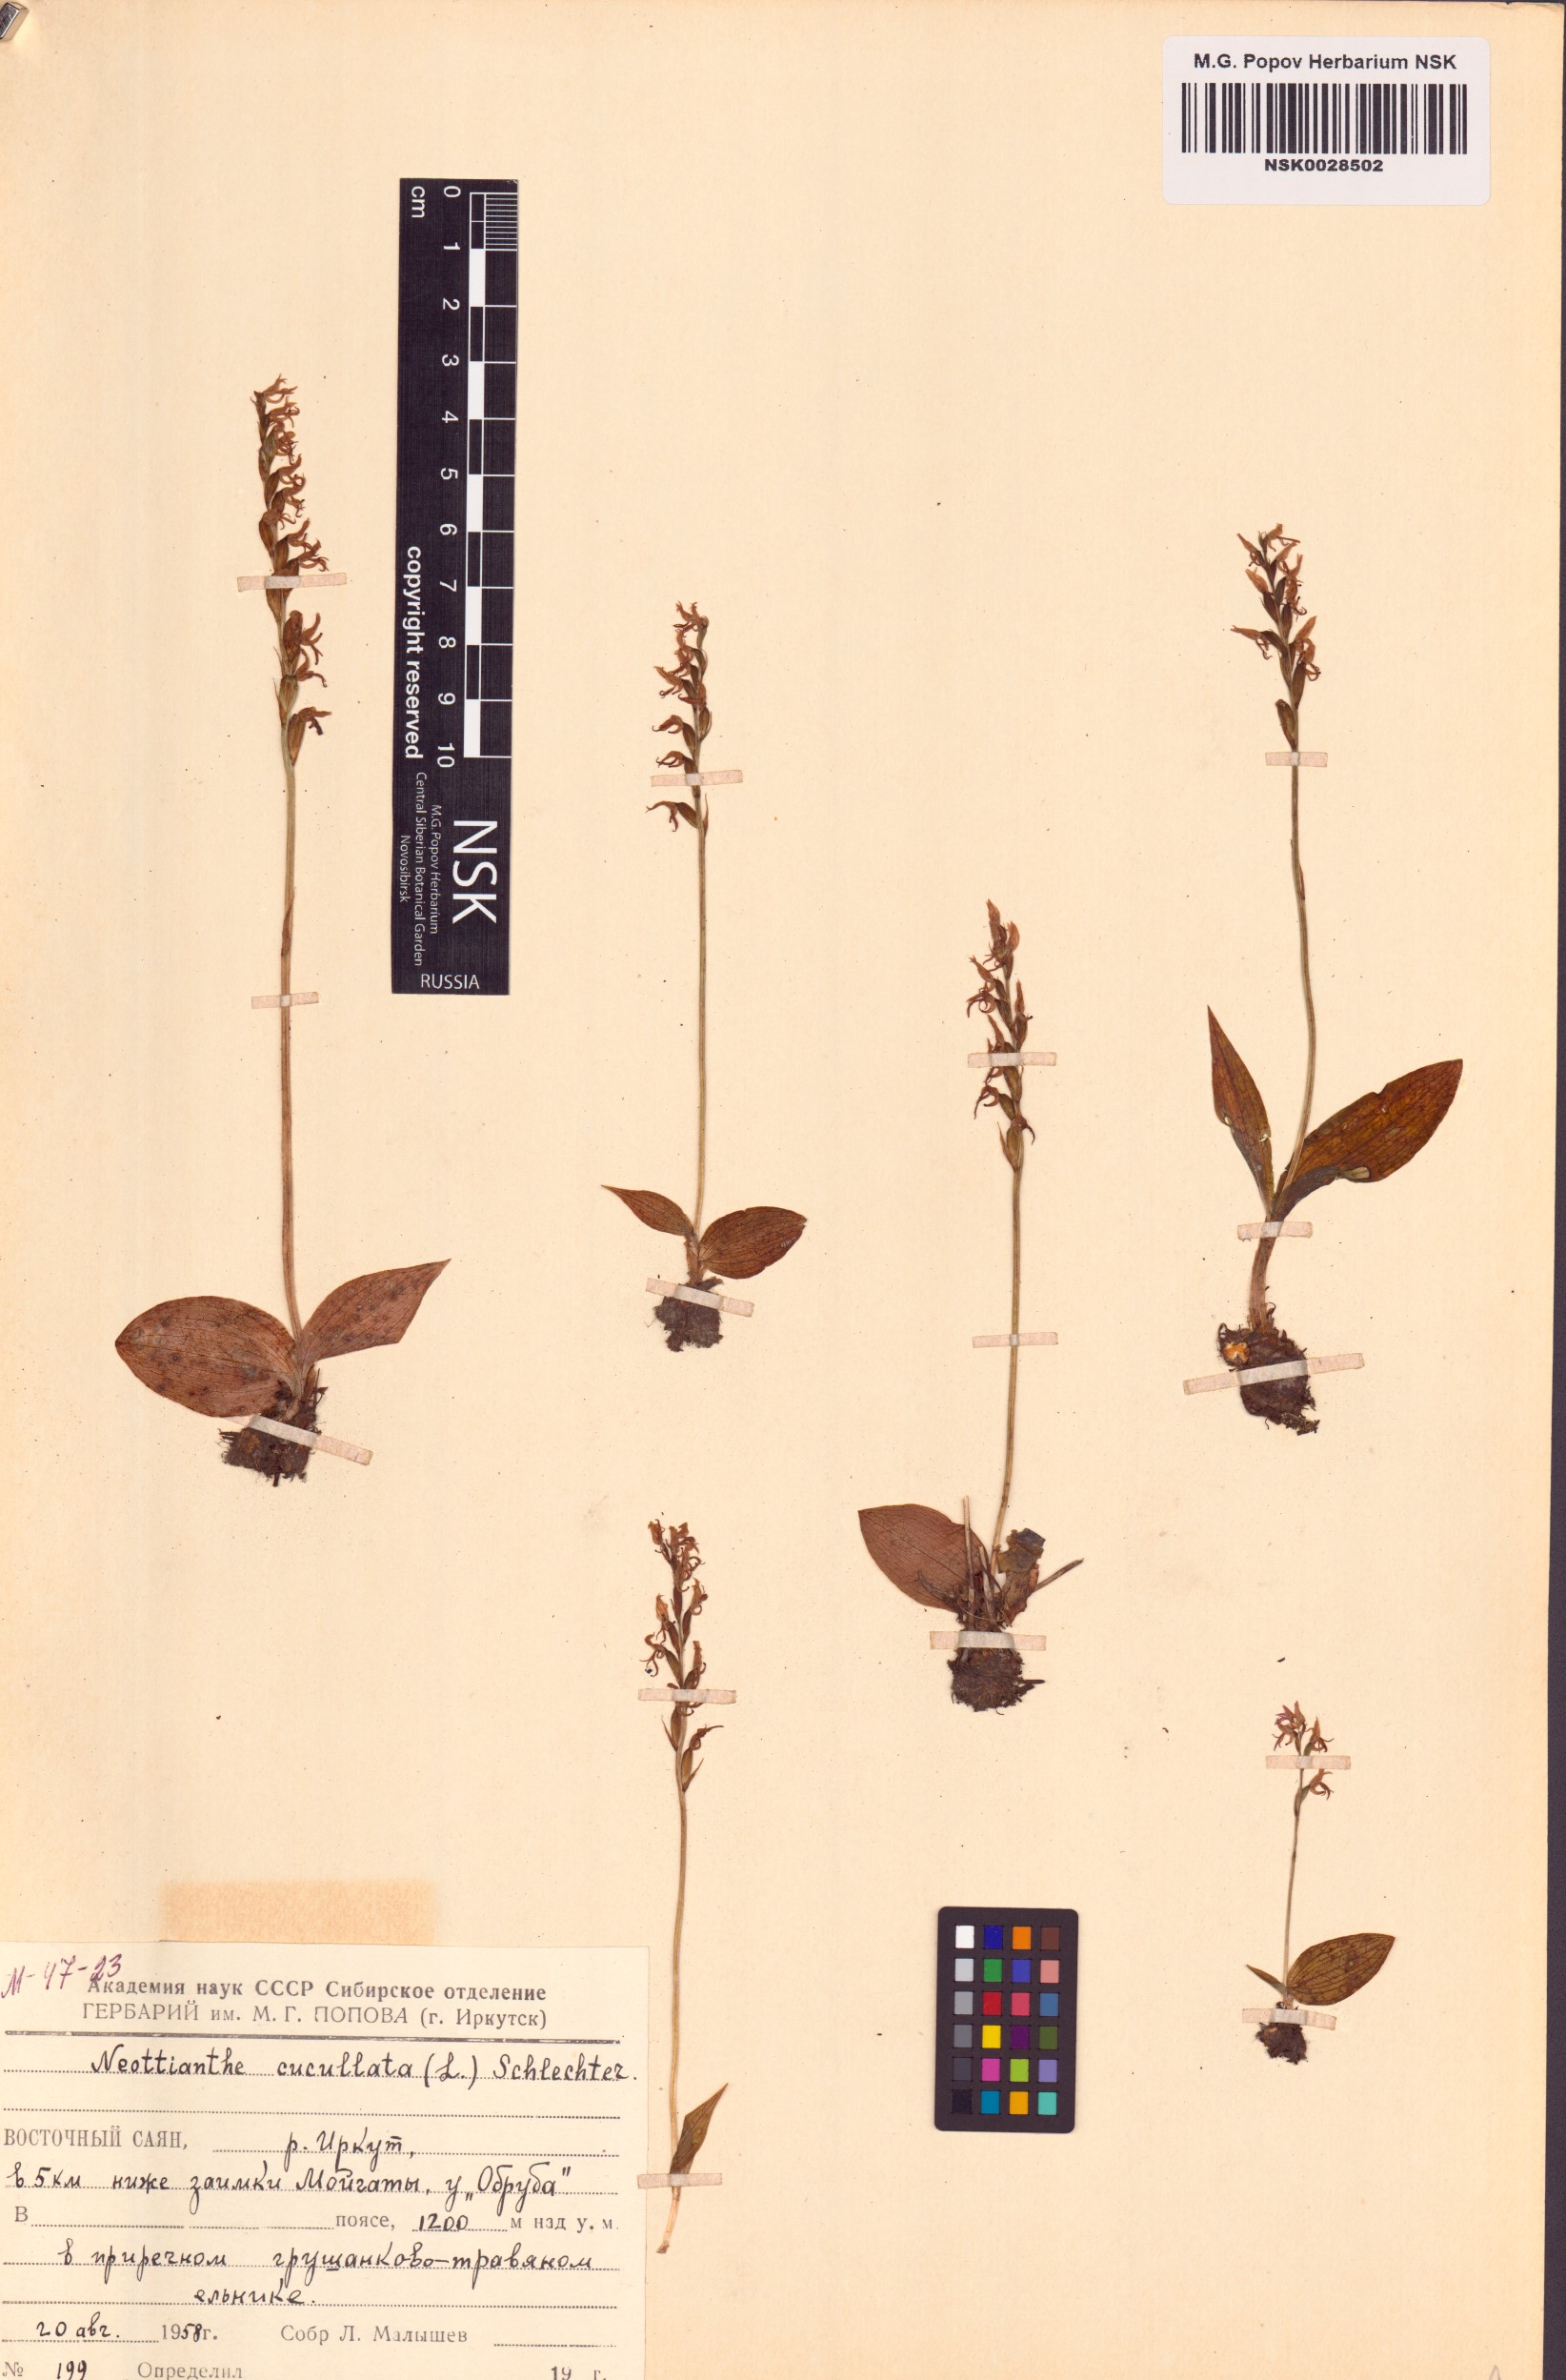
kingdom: Plantae
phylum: Tracheophyta
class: Liliopsida
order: Asparagales
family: Orchidaceae
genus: Hemipilia
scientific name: Hemipilia cucullata
